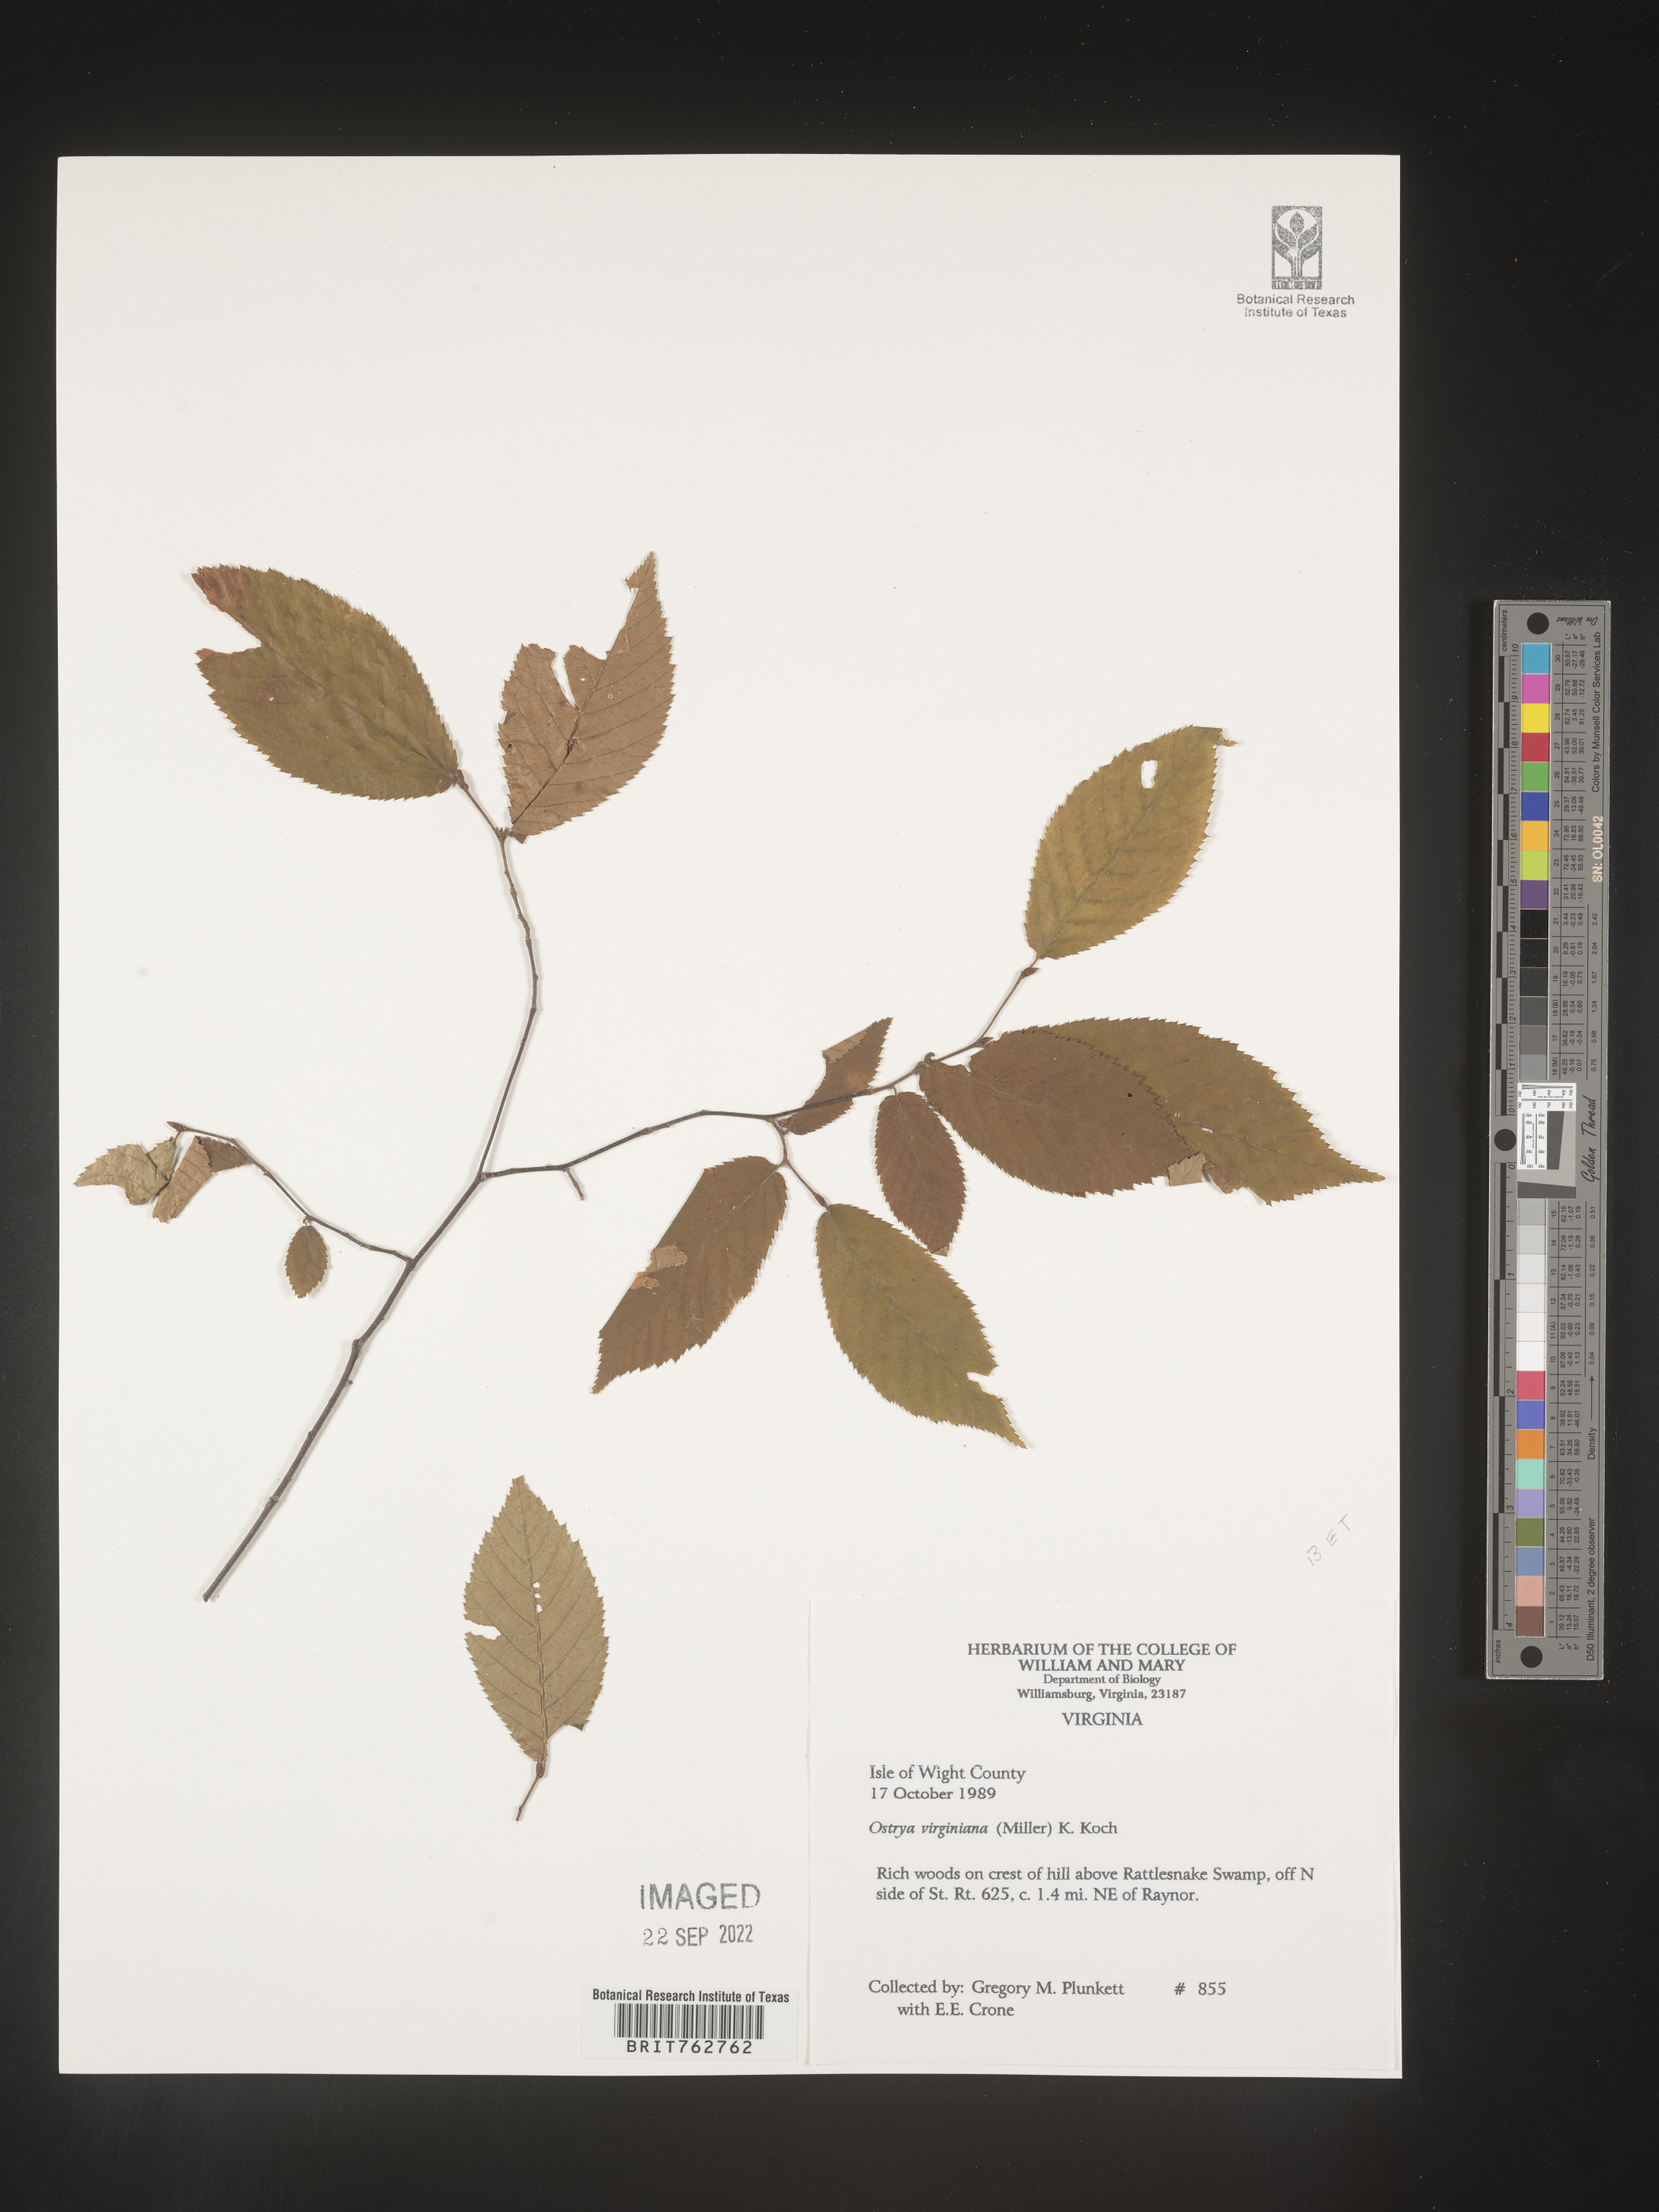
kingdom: Plantae
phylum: Tracheophyta
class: Magnoliopsida
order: Fagales
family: Betulaceae
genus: Ostrya
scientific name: Ostrya virginiana
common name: Ironwood
